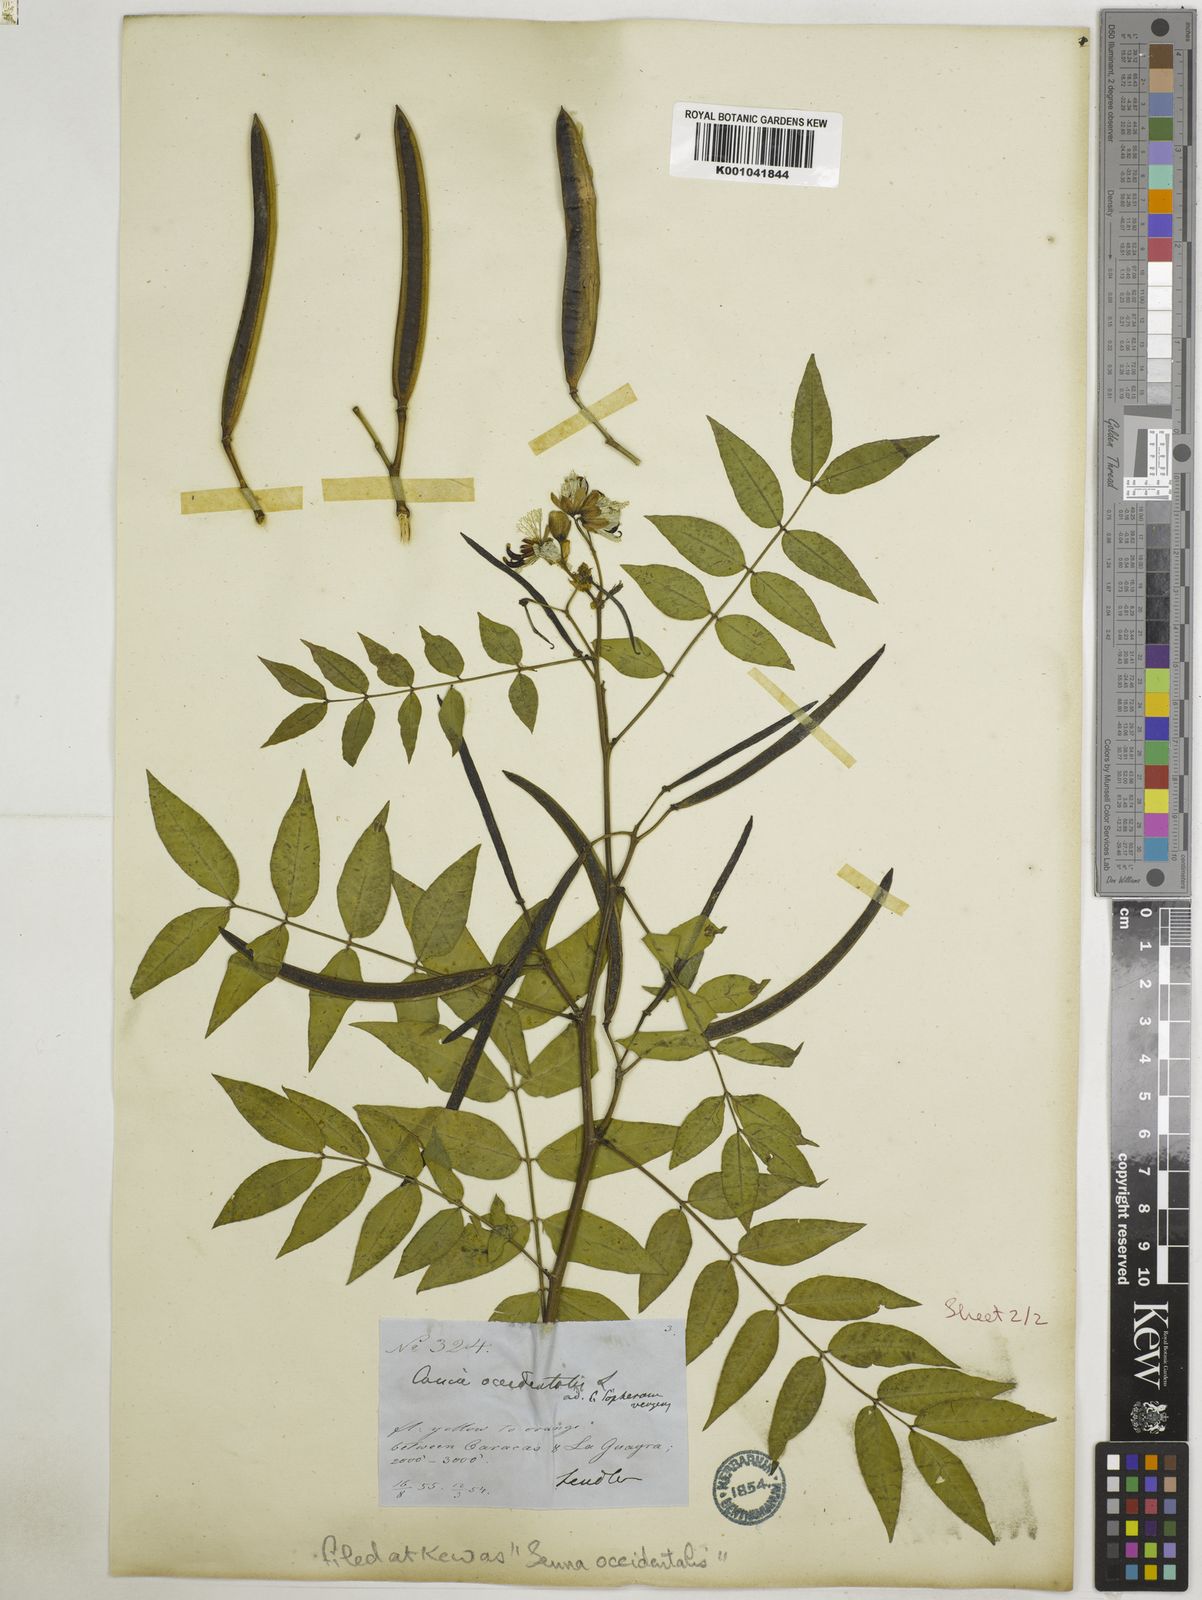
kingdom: Plantae
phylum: Tracheophyta
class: Magnoliopsida
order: Fabales
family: Fabaceae
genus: Senna
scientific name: Senna occidentalis
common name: Septicweed
